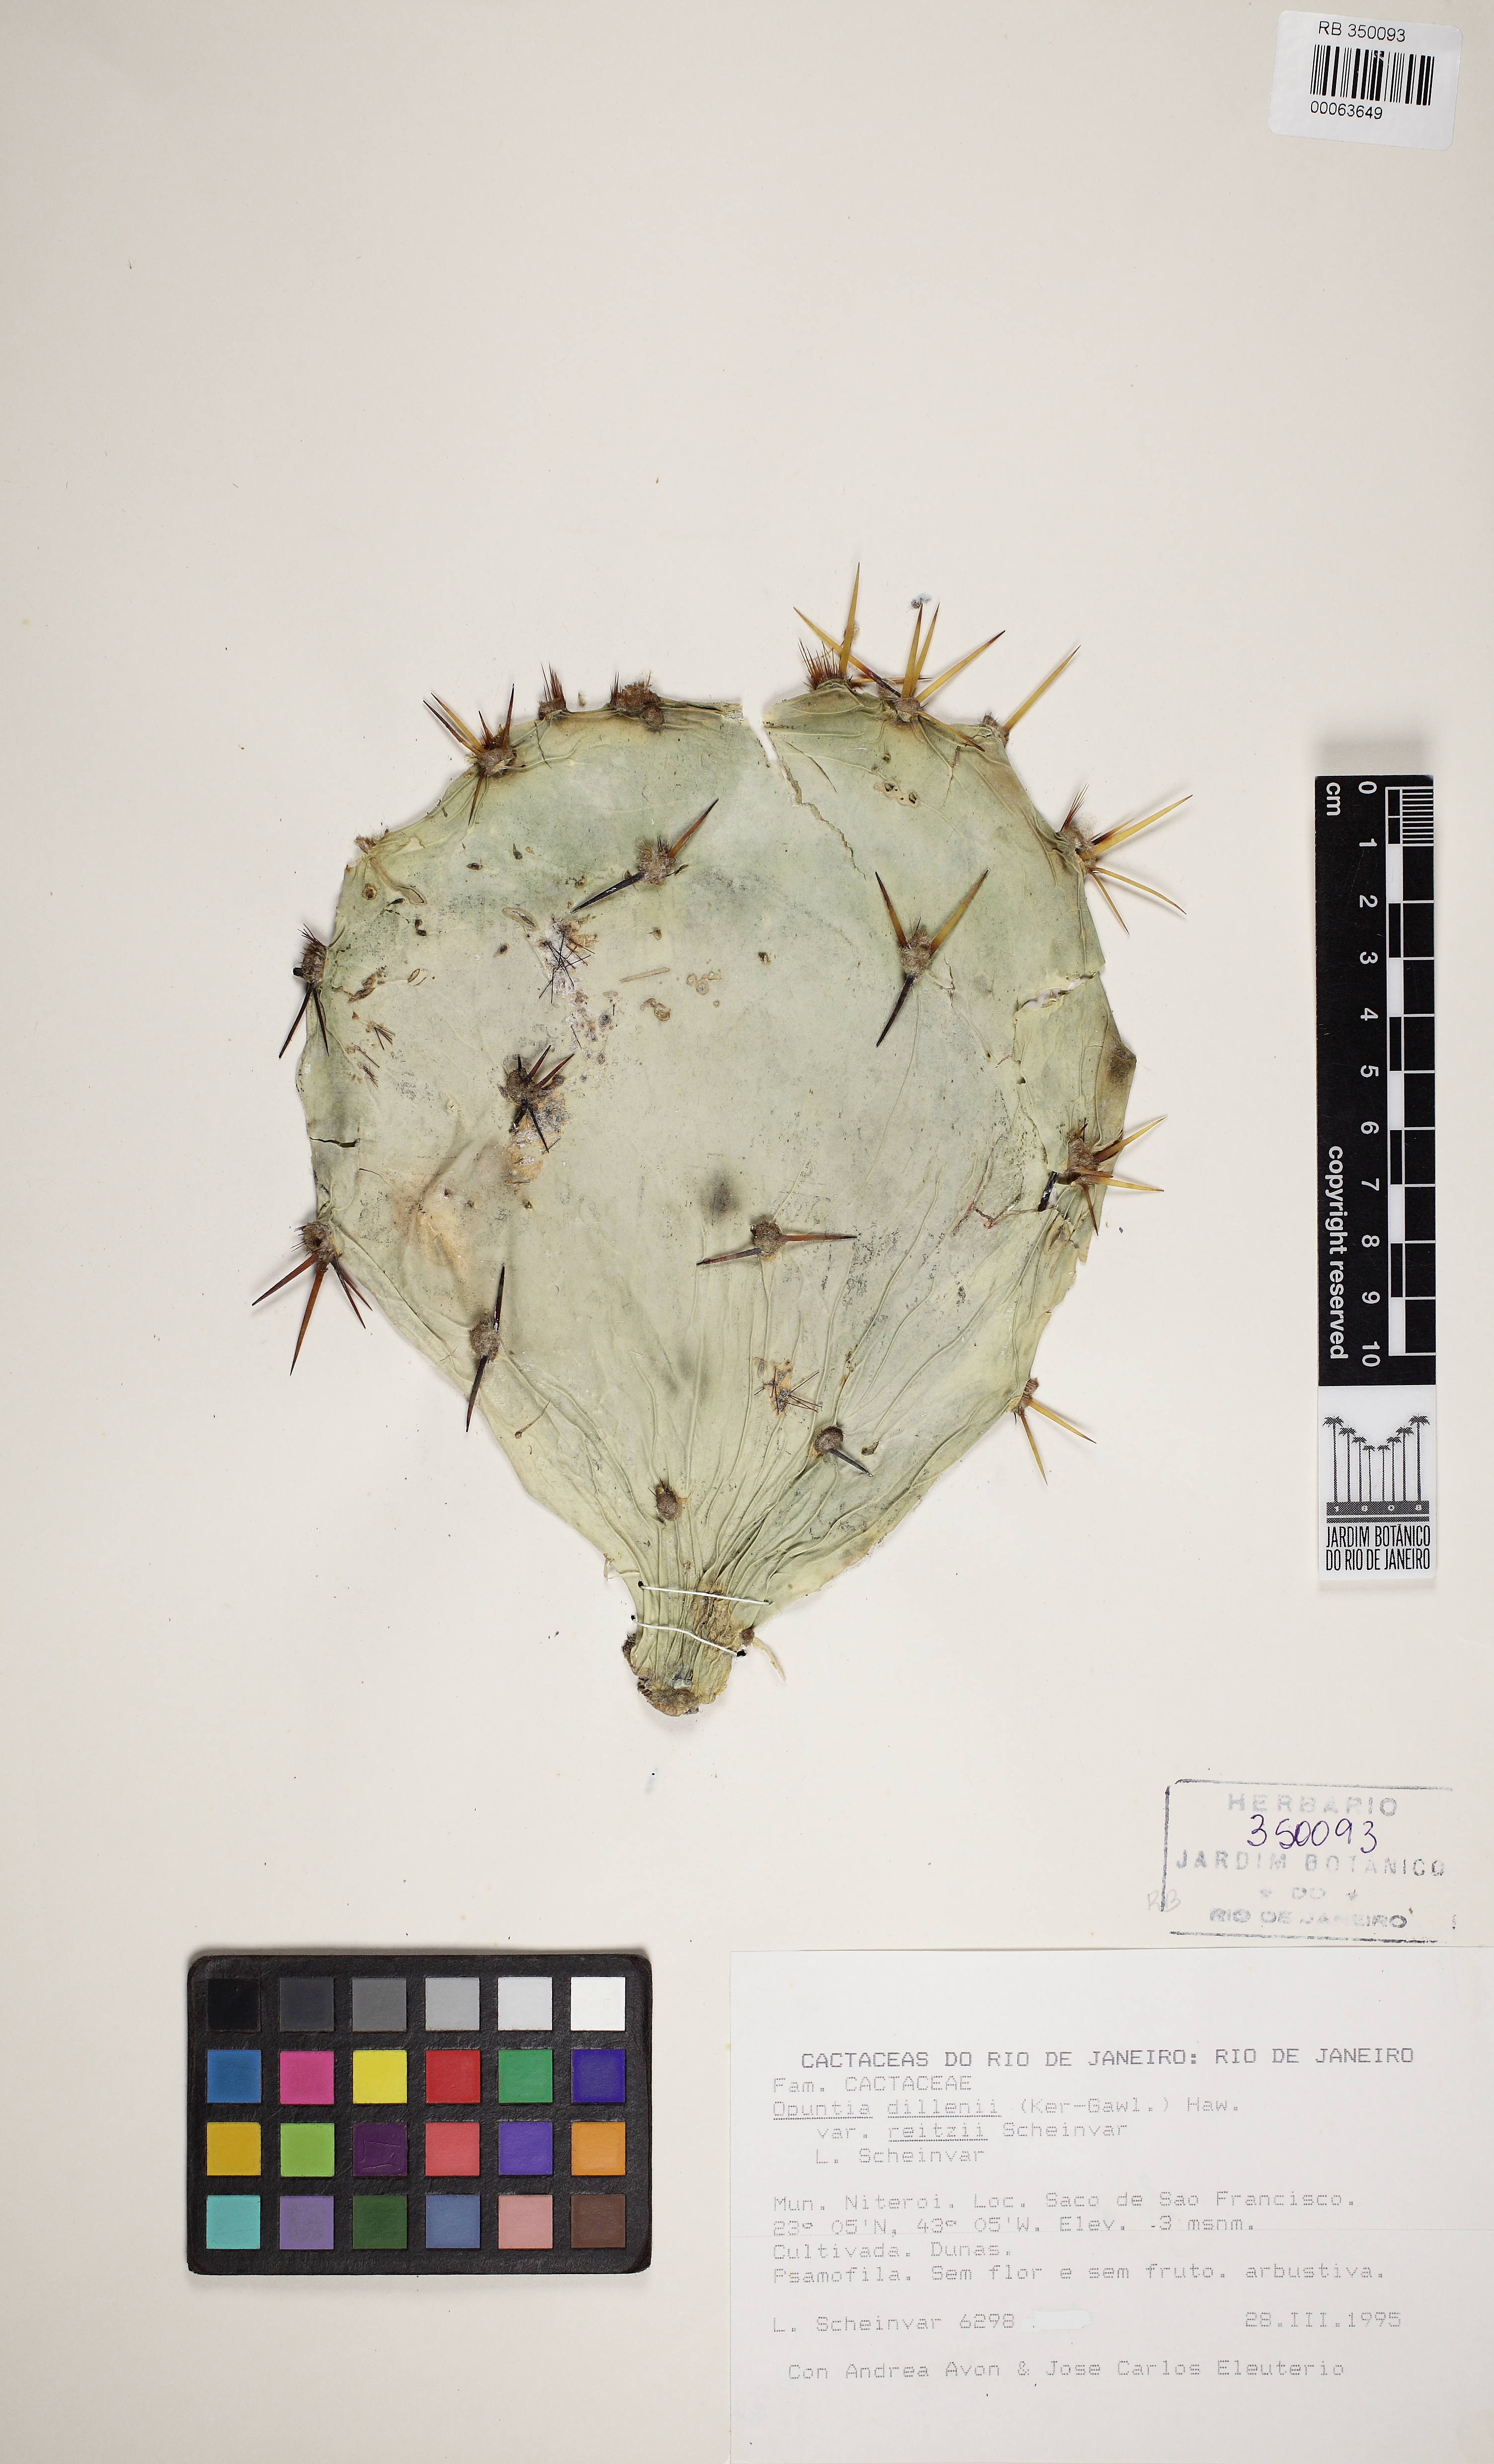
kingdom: Plantae
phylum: Tracheophyta
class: Magnoliopsida
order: Caryophyllales
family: Cactaceae
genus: Opuntia
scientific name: Opuntia stricta
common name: Erect pricklypear
